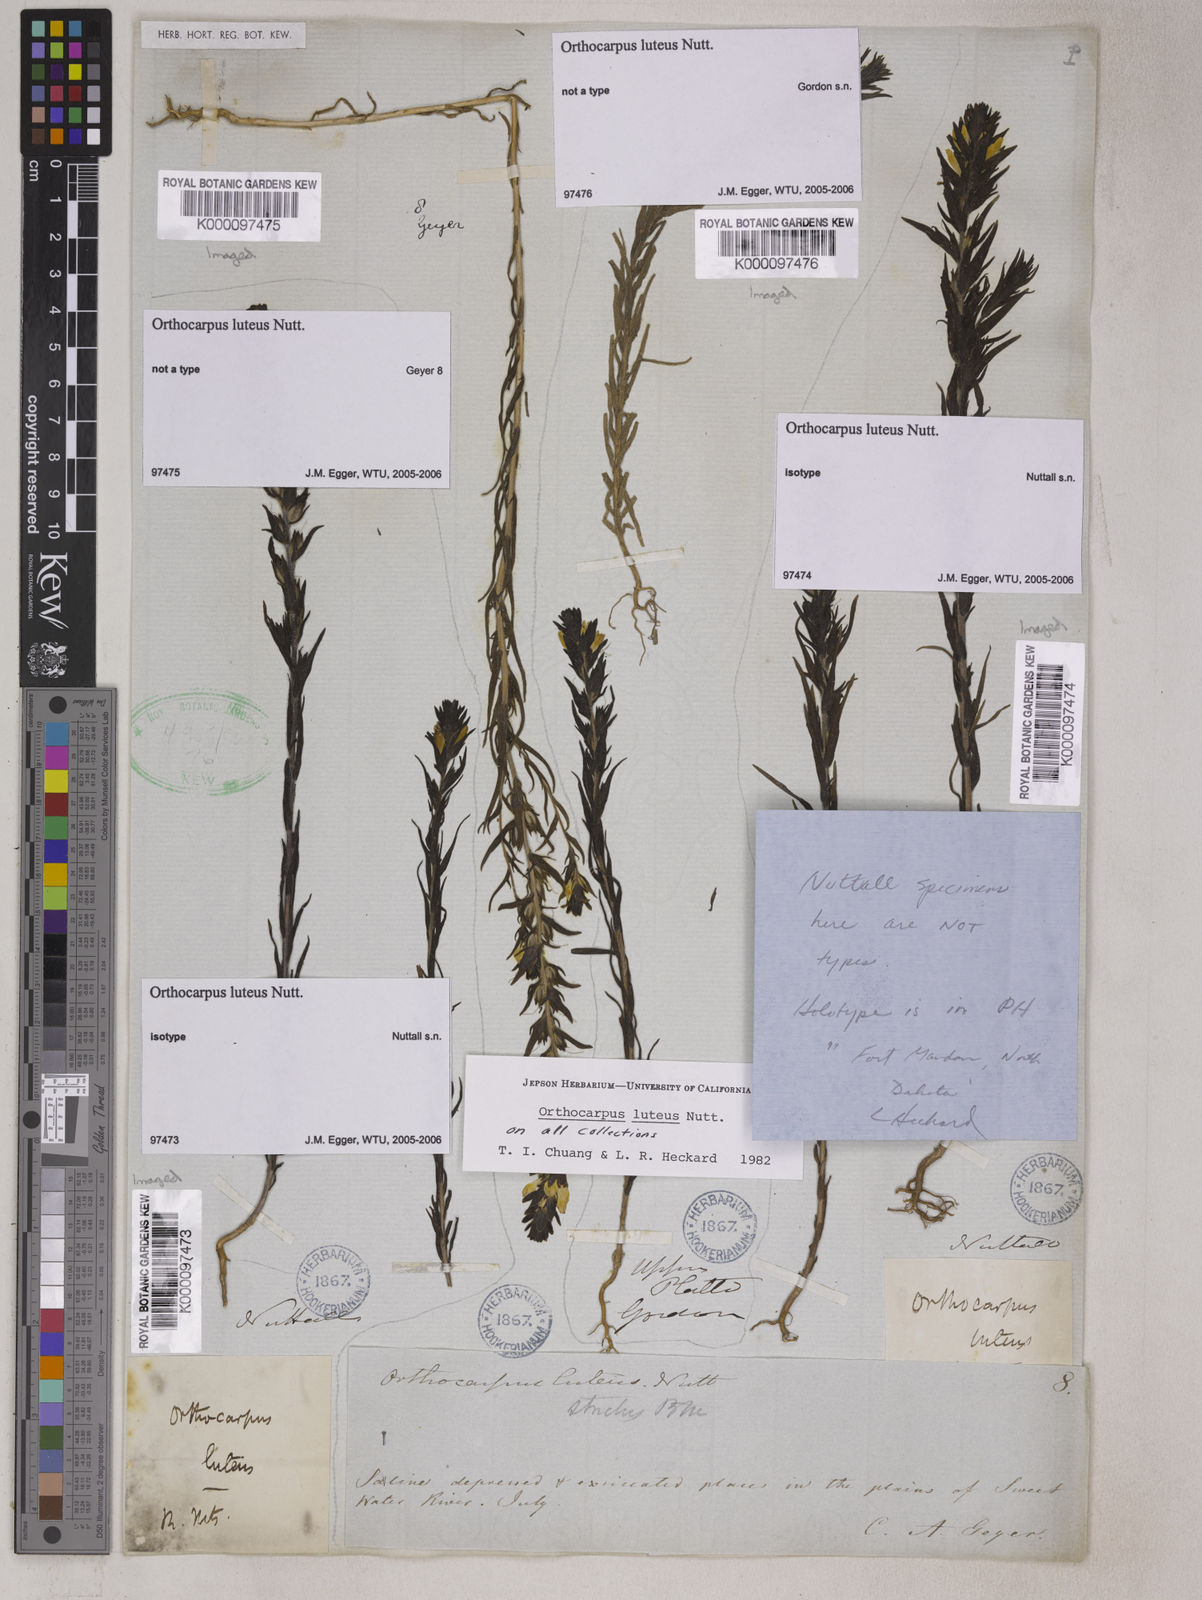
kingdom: Plantae
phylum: Tracheophyta
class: Magnoliopsida
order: Lamiales
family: Orobanchaceae
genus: Orthocarpus
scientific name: Orthocarpus luteus
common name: Golden-tongue owl's-clover
